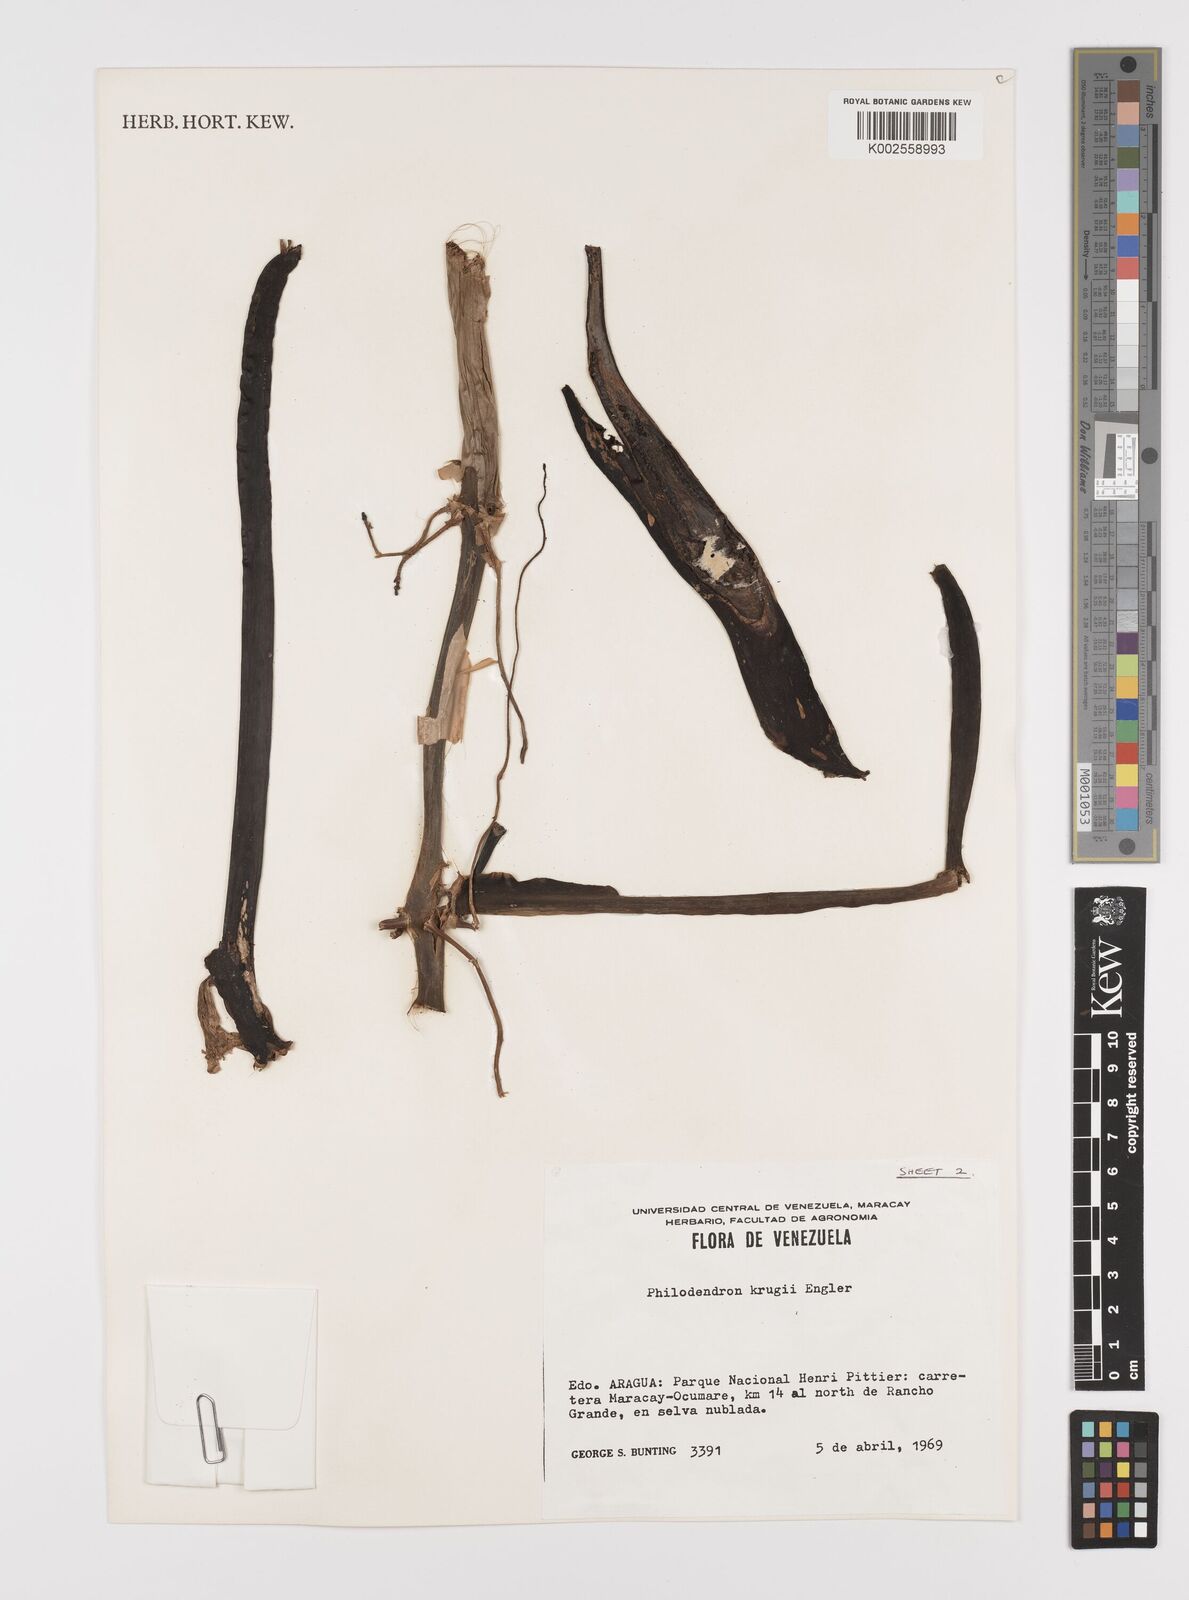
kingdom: Plantae
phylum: Tracheophyta
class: Liliopsida
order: Alismatales
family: Araceae
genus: Philodendron
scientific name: Philodendron krugii
